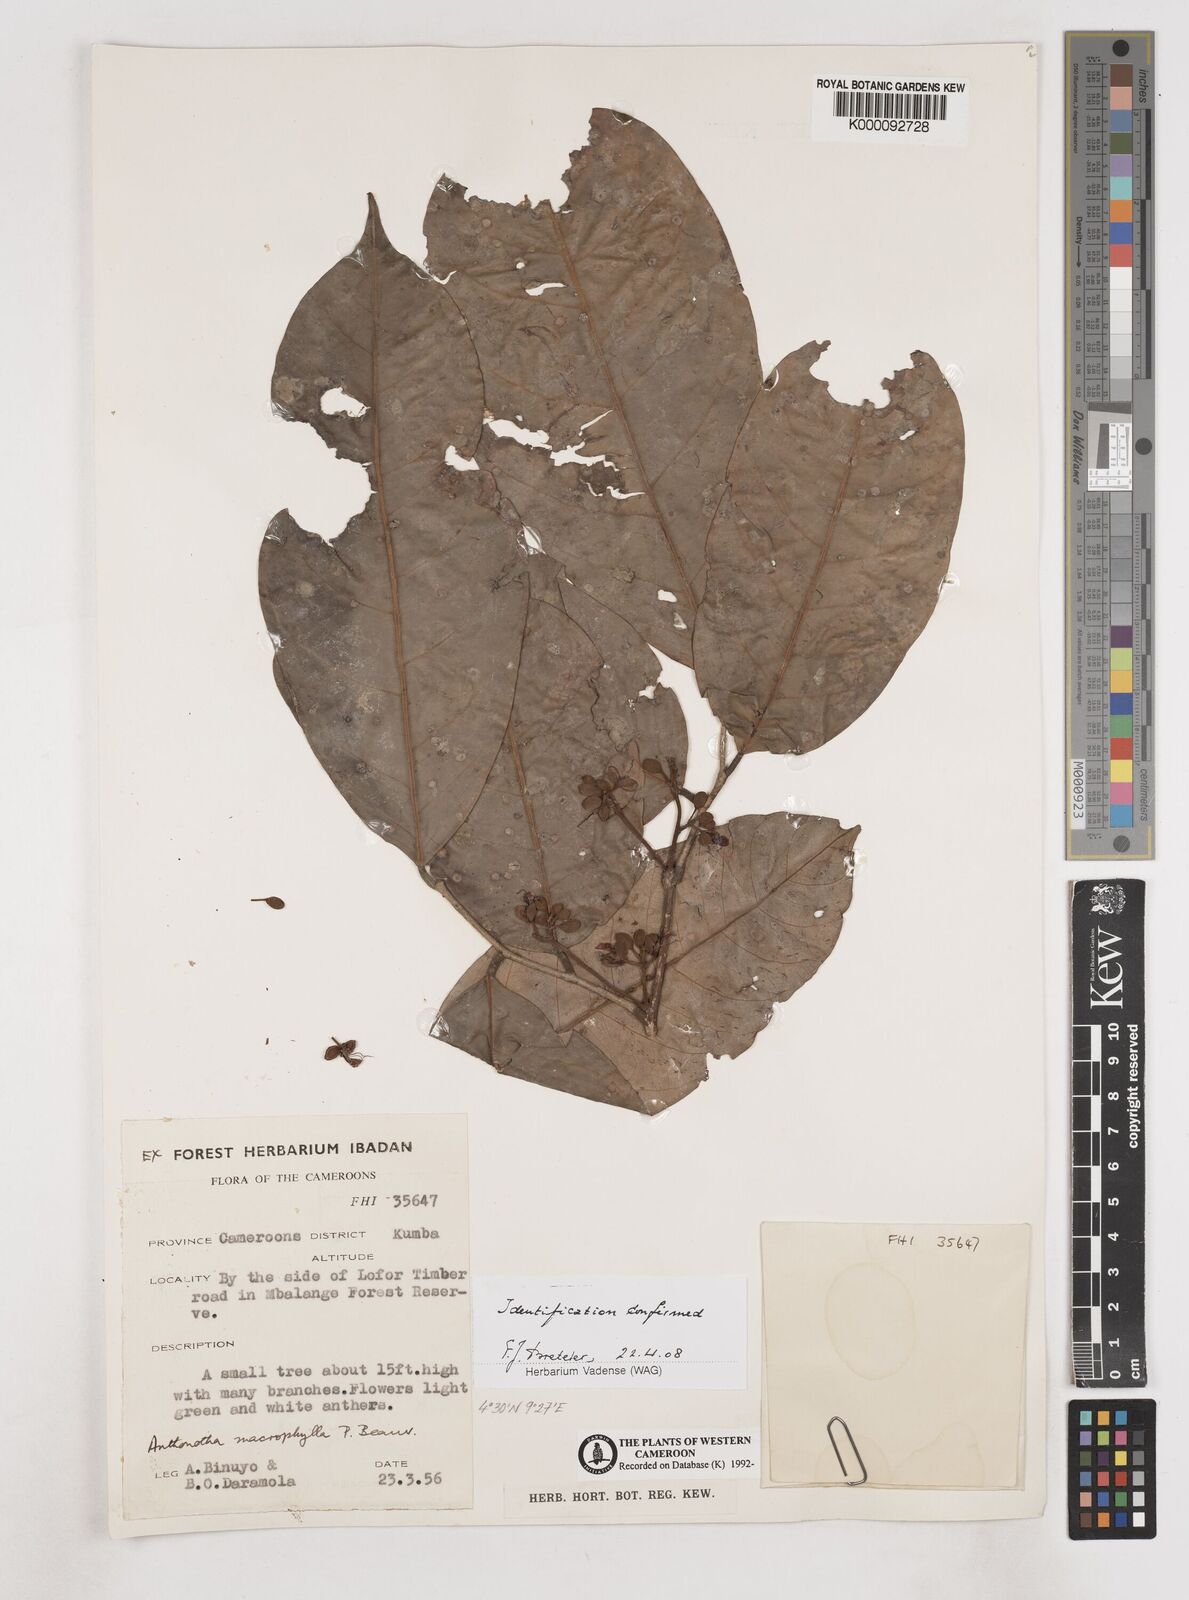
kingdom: Plantae
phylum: Tracheophyta
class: Magnoliopsida
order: Fabales
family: Fabaceae
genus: Anthonotha
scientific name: Anthonotha macrophylla
